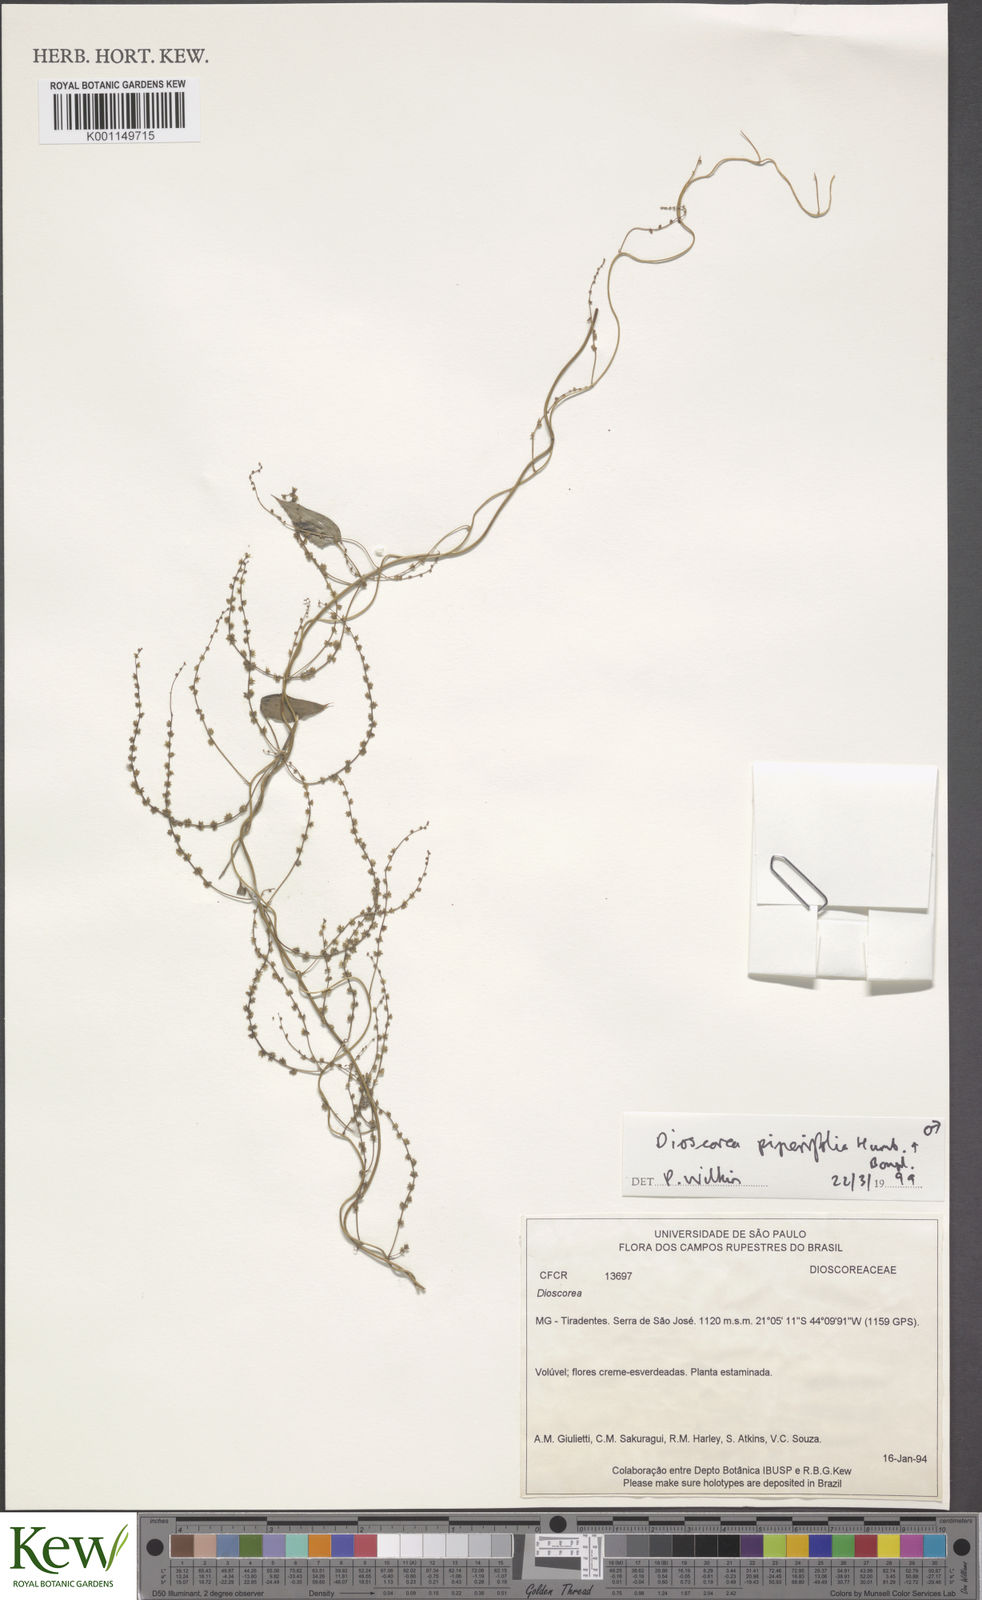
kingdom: Plantae
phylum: Tracheophyta
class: Liliopsida
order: Dioscoreales
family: Dioscoreaceae
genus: Dioscorea
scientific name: Dioscorea adenantha
